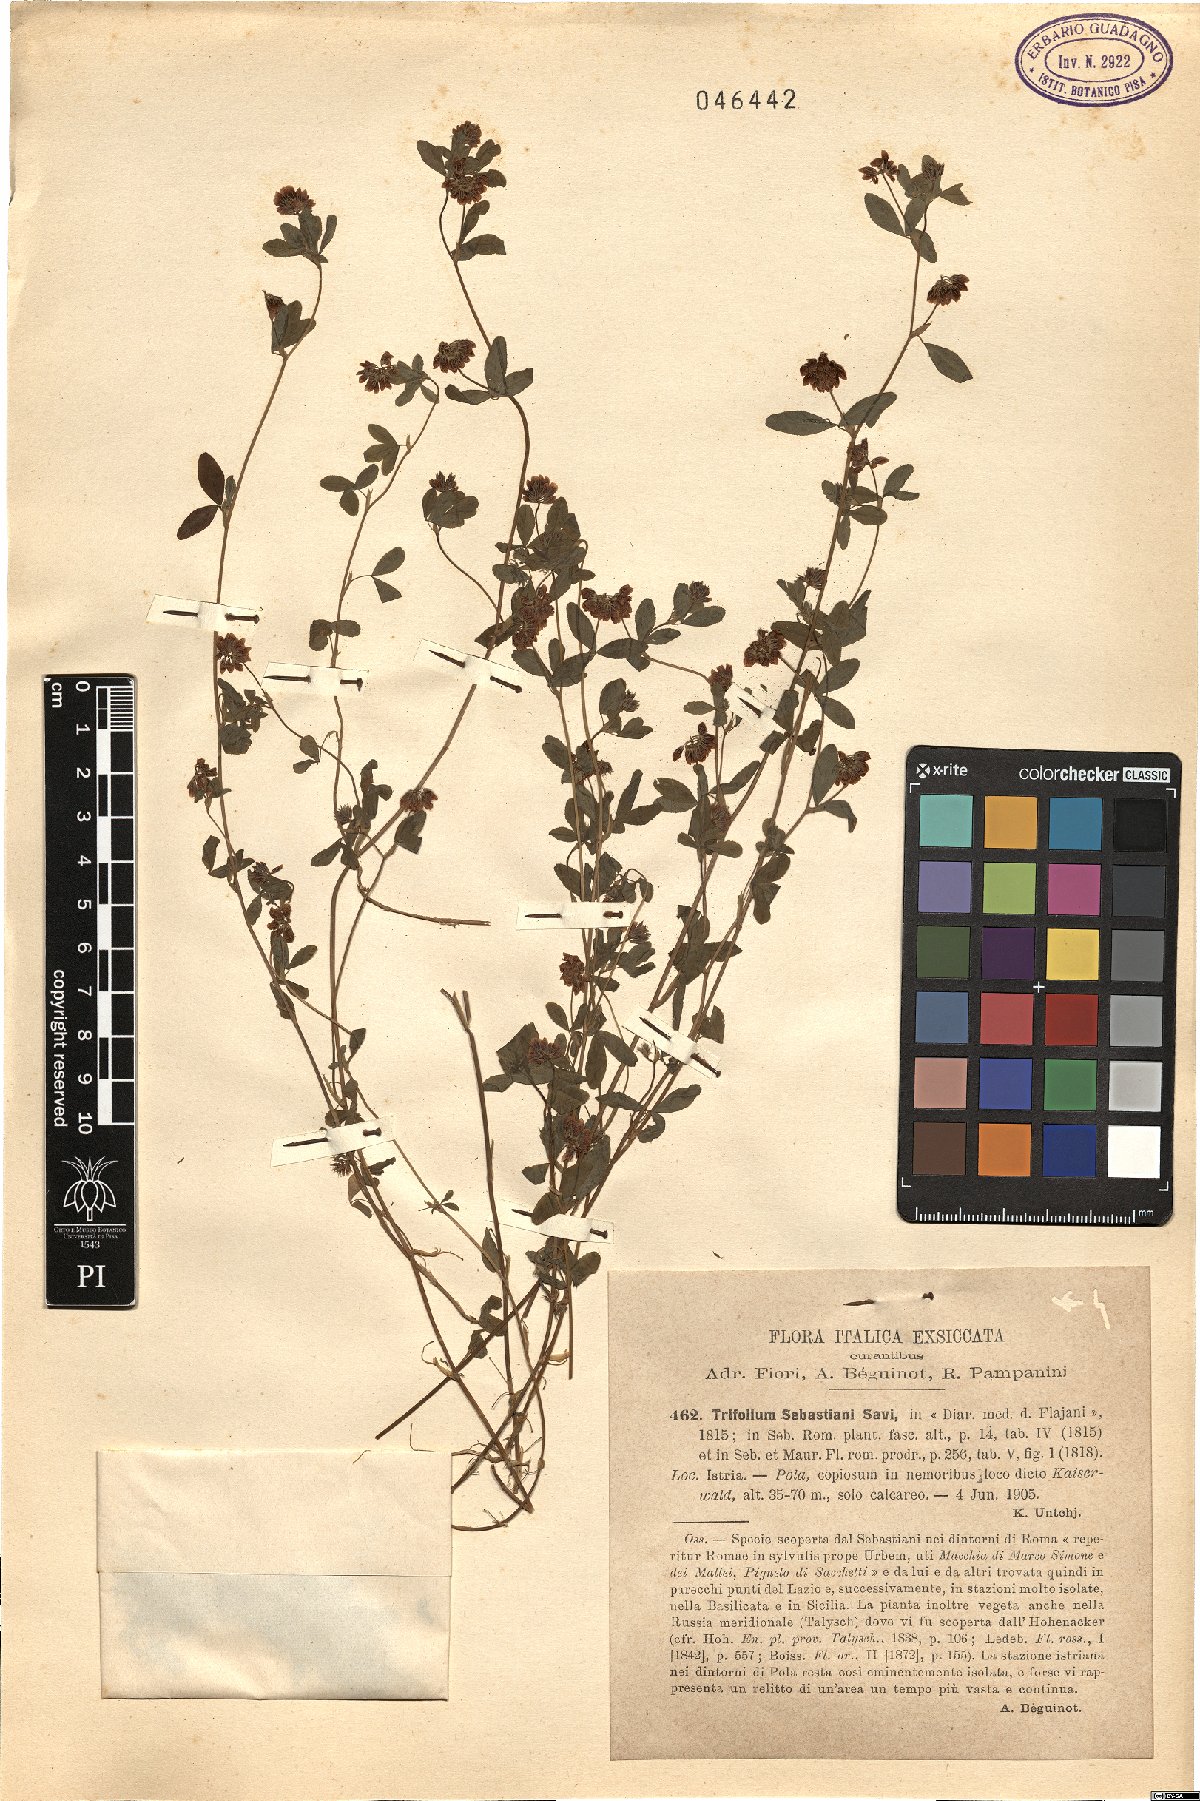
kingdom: Plantae
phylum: Tracheophyta
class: Magnoliopsida
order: Fabales
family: Fabaceae
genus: Trifolium
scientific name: Trifolium sebastiani
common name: Sebastian's clover
